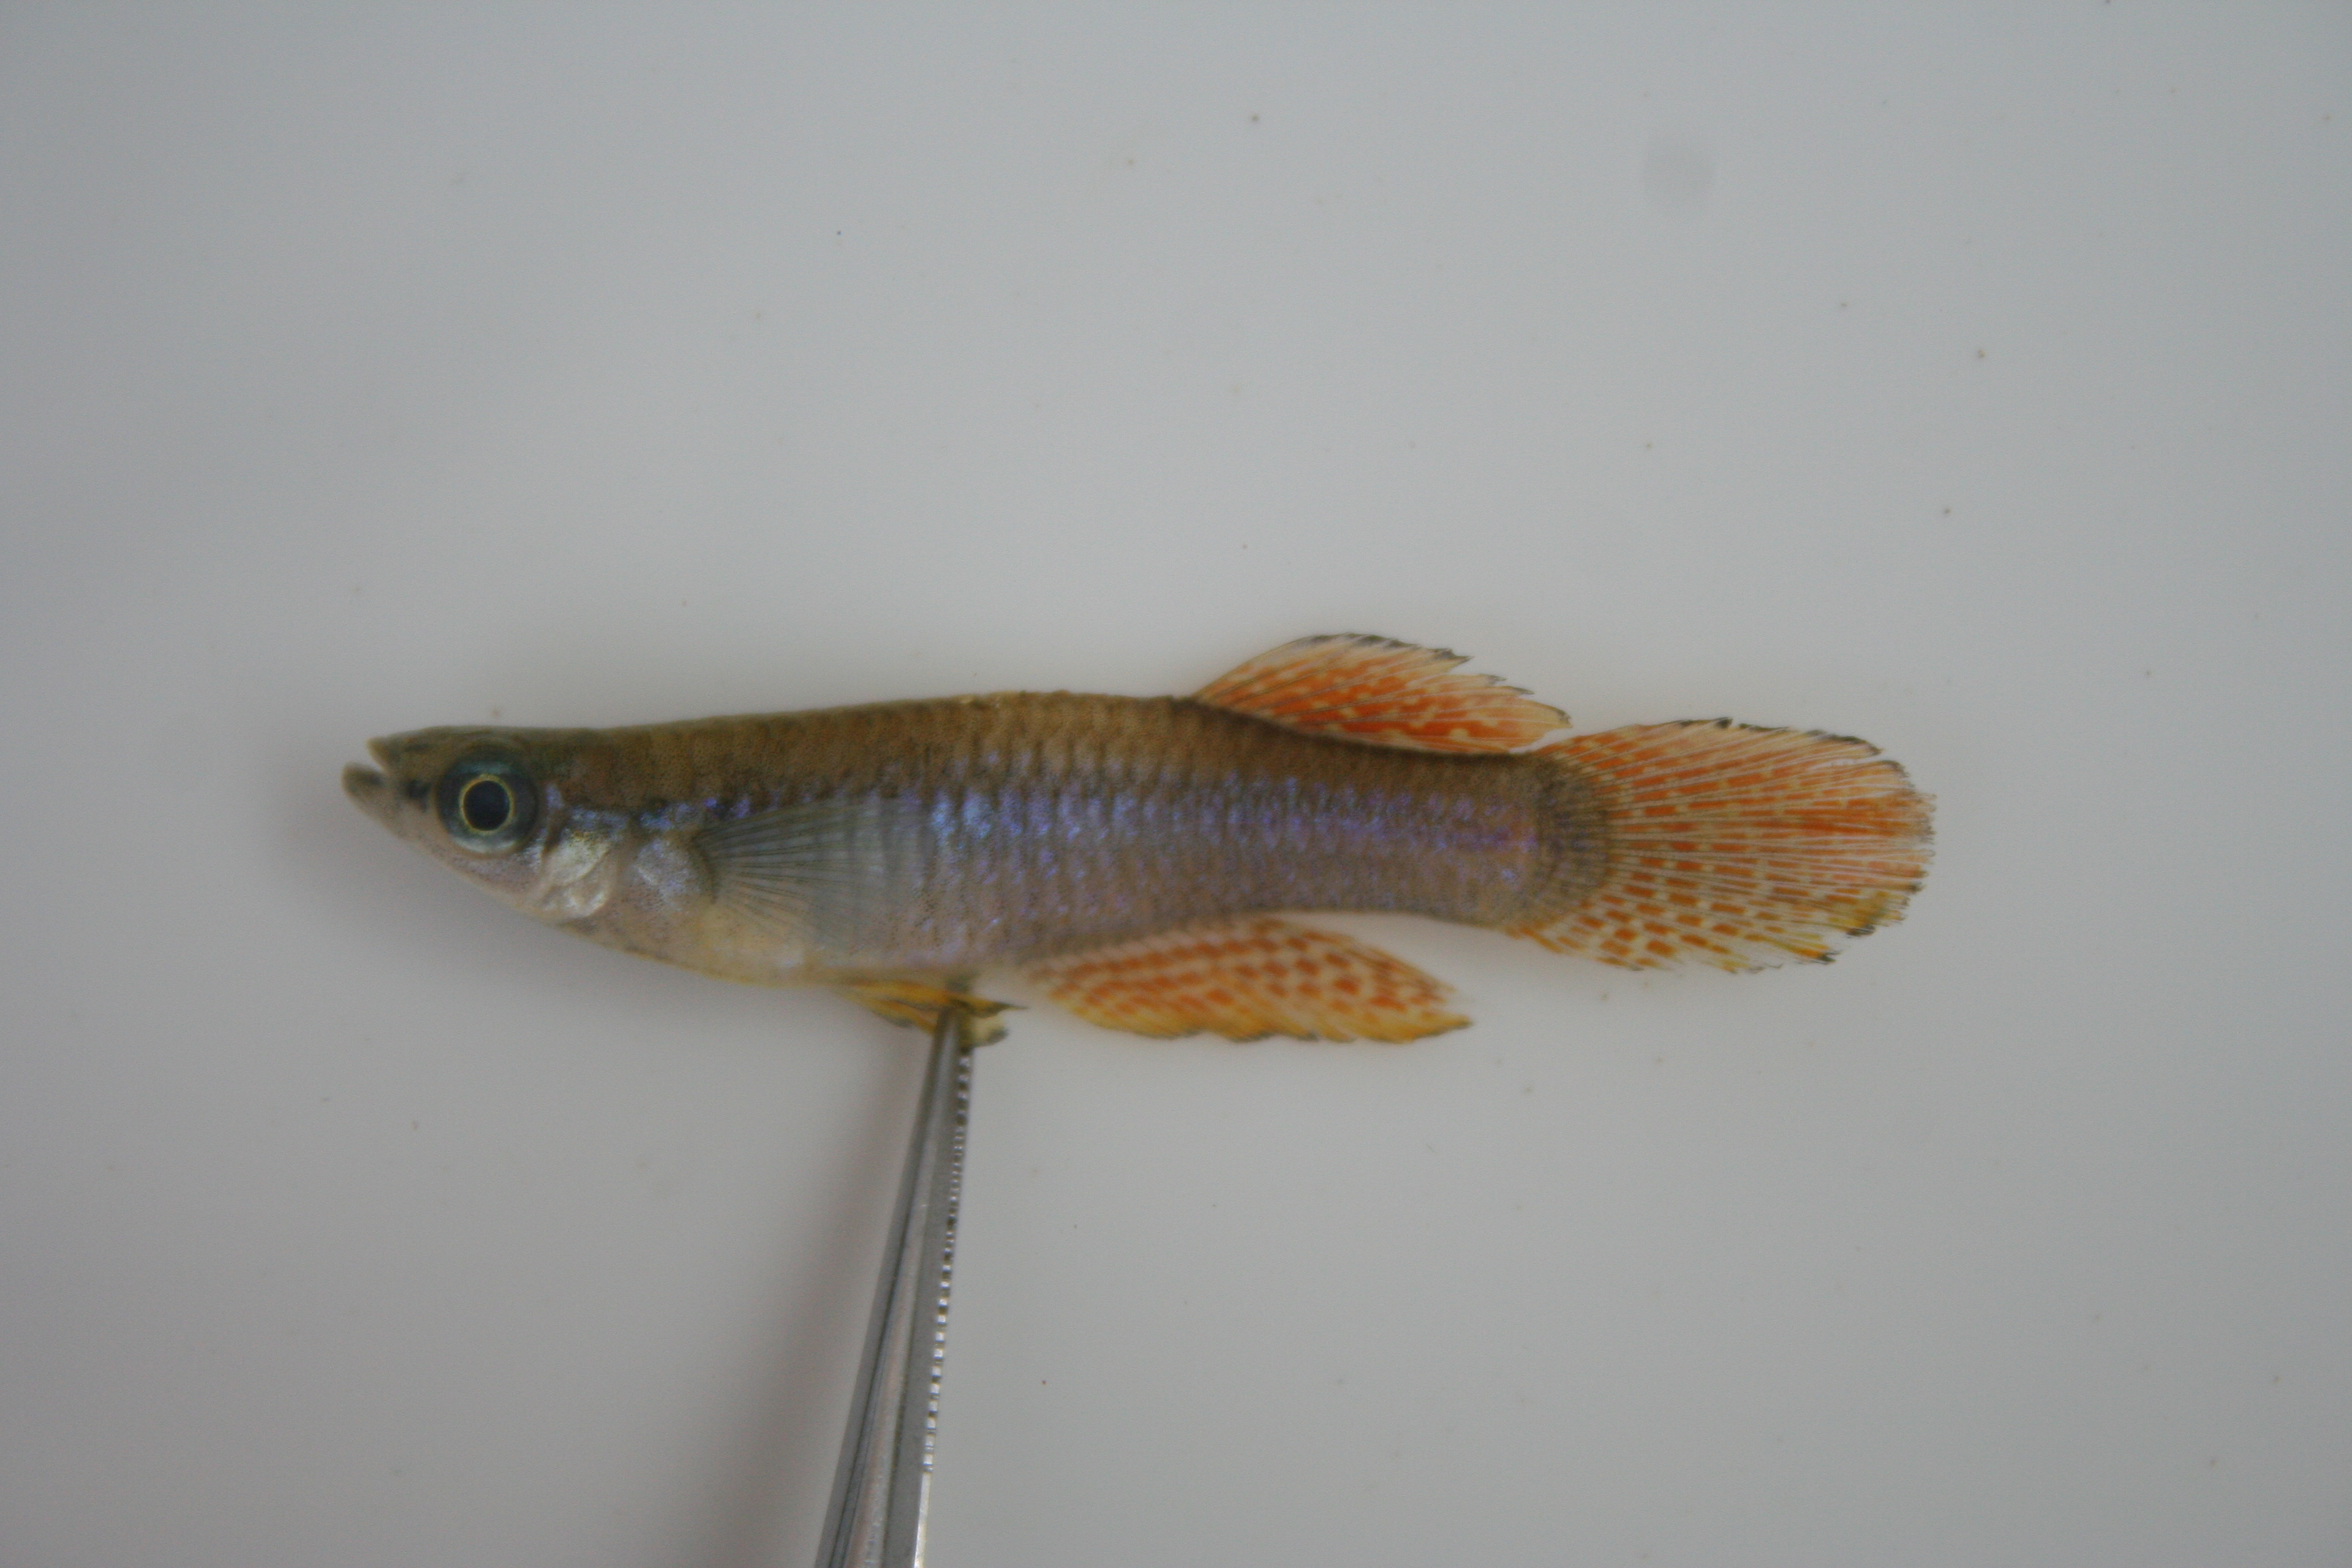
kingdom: Animalia
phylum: Chordata
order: Cyprinodontiformes
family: Poeciliidae
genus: Aplocheilichthys
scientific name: Aplocheilichthys
